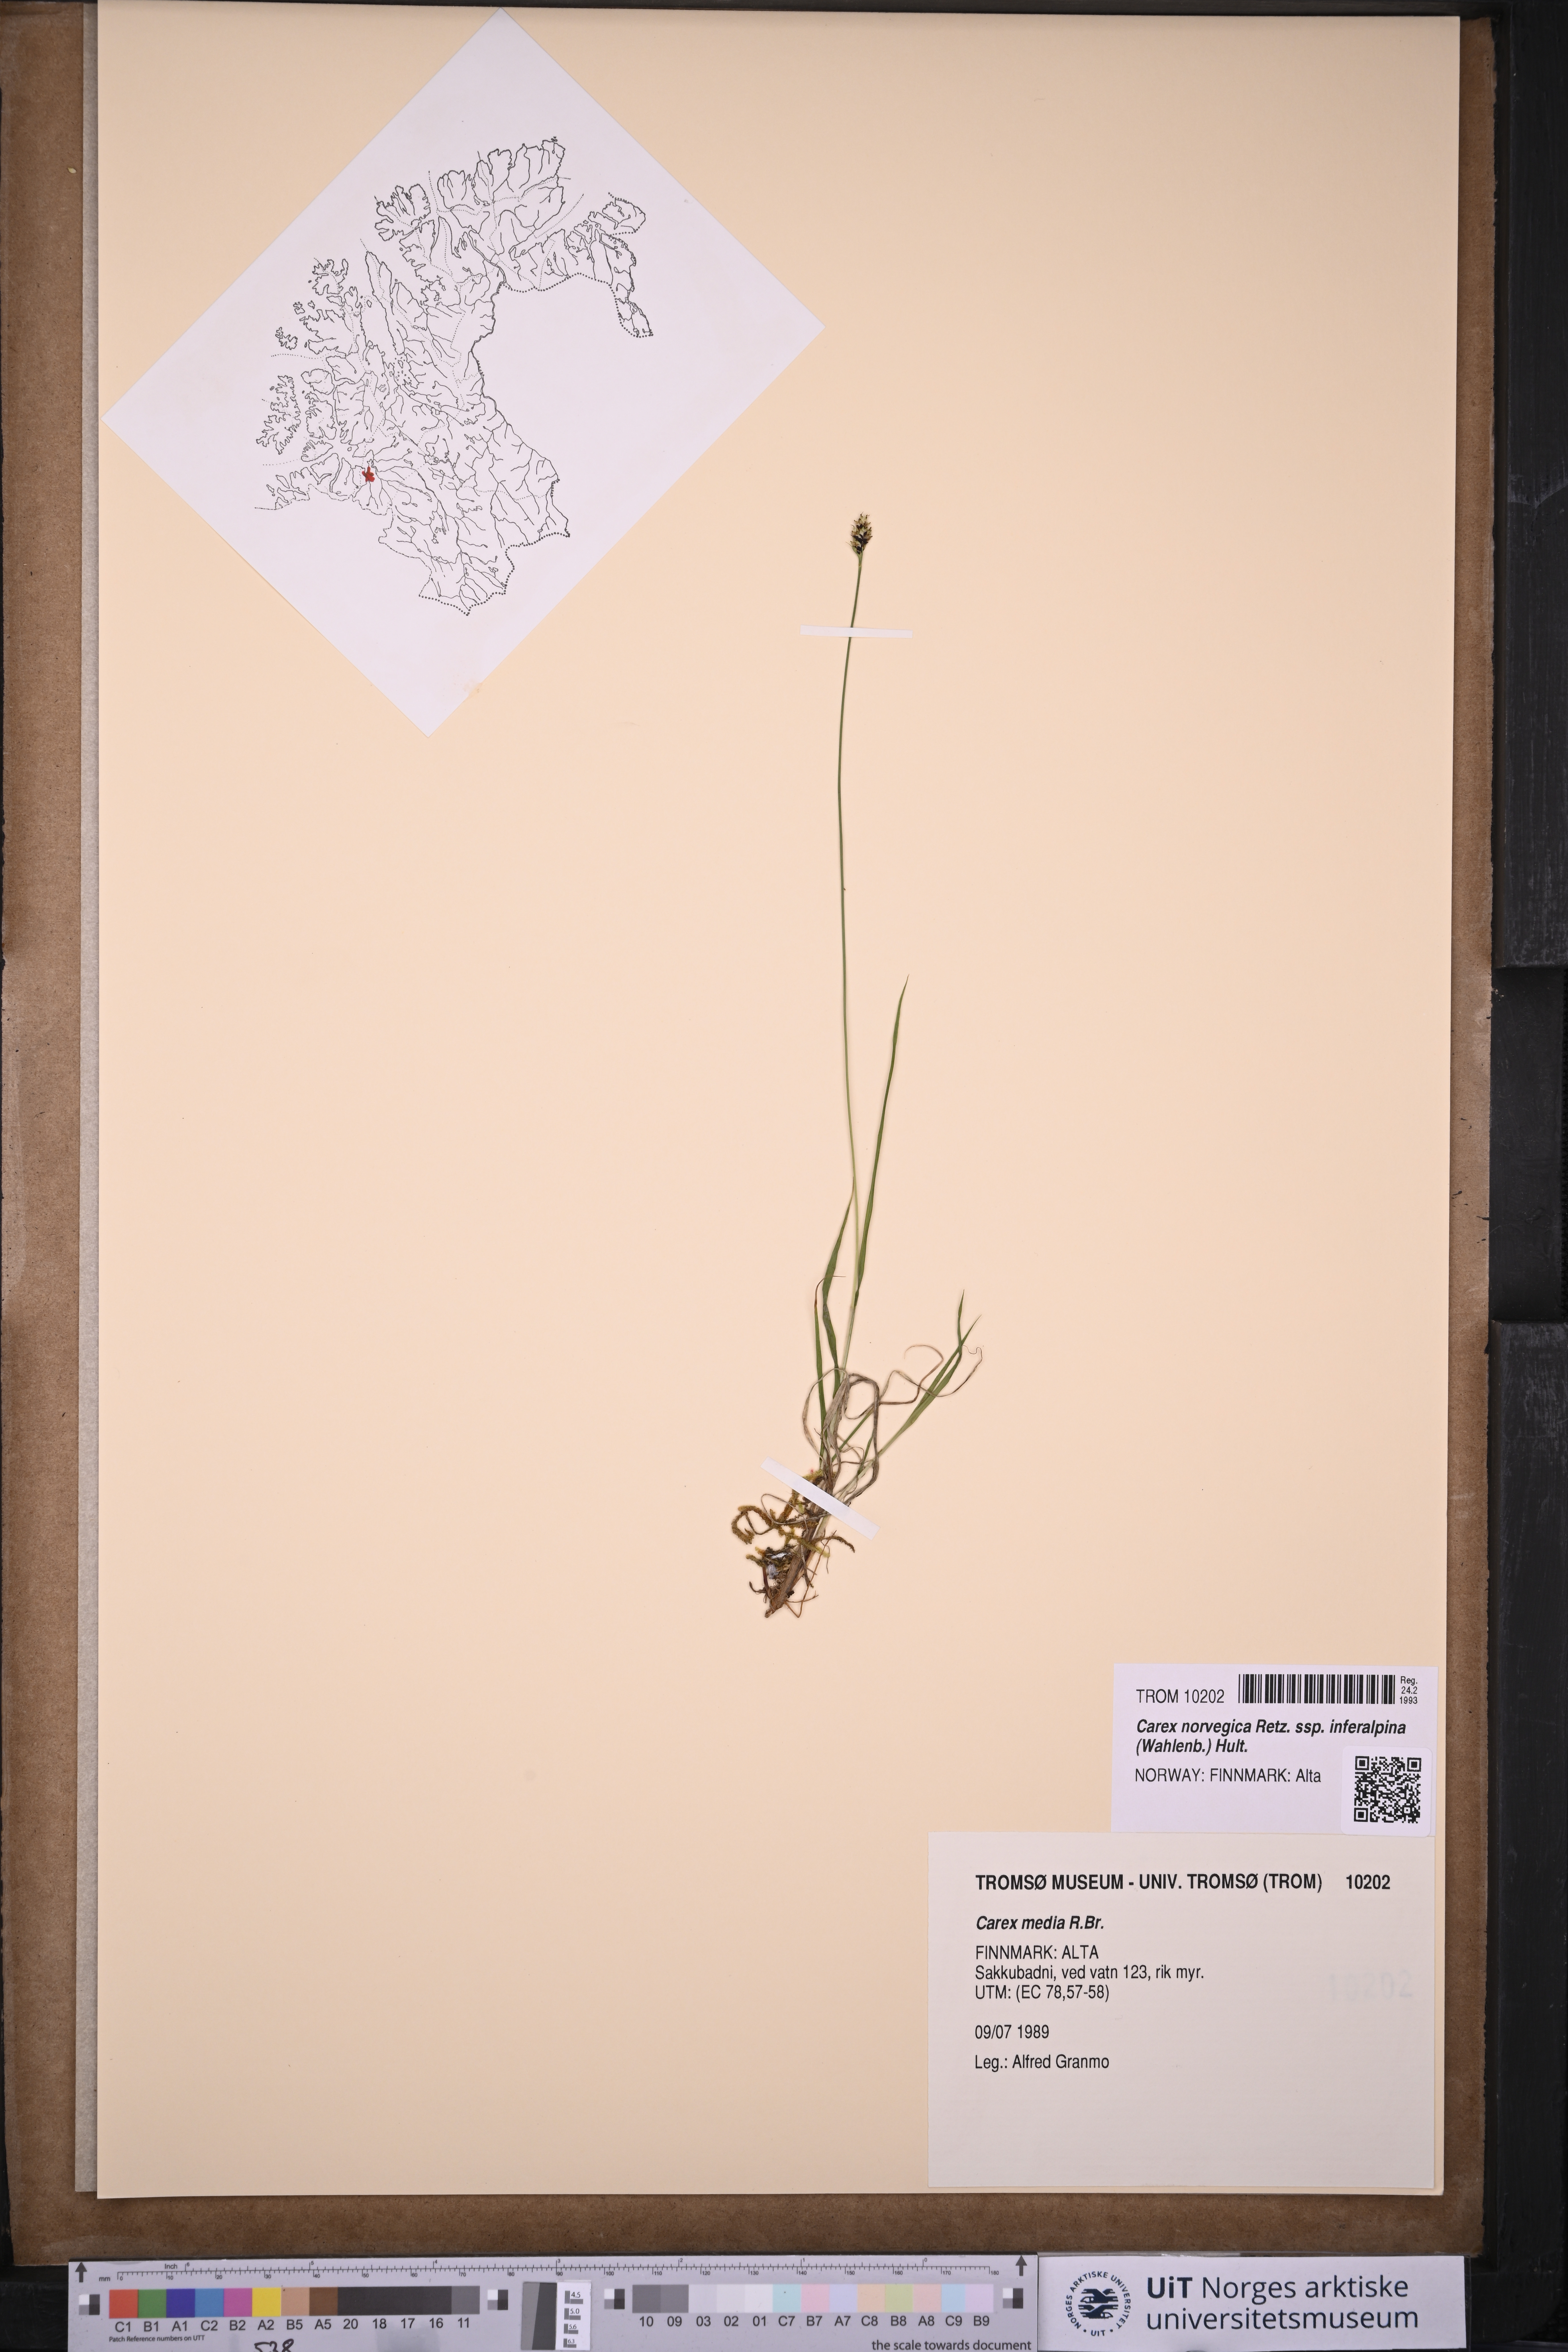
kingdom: Plantae
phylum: Tracheophyta
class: Liliopsida
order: Poales
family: Cyperaceae
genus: Carex
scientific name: Carex media
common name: Alpine sedge
